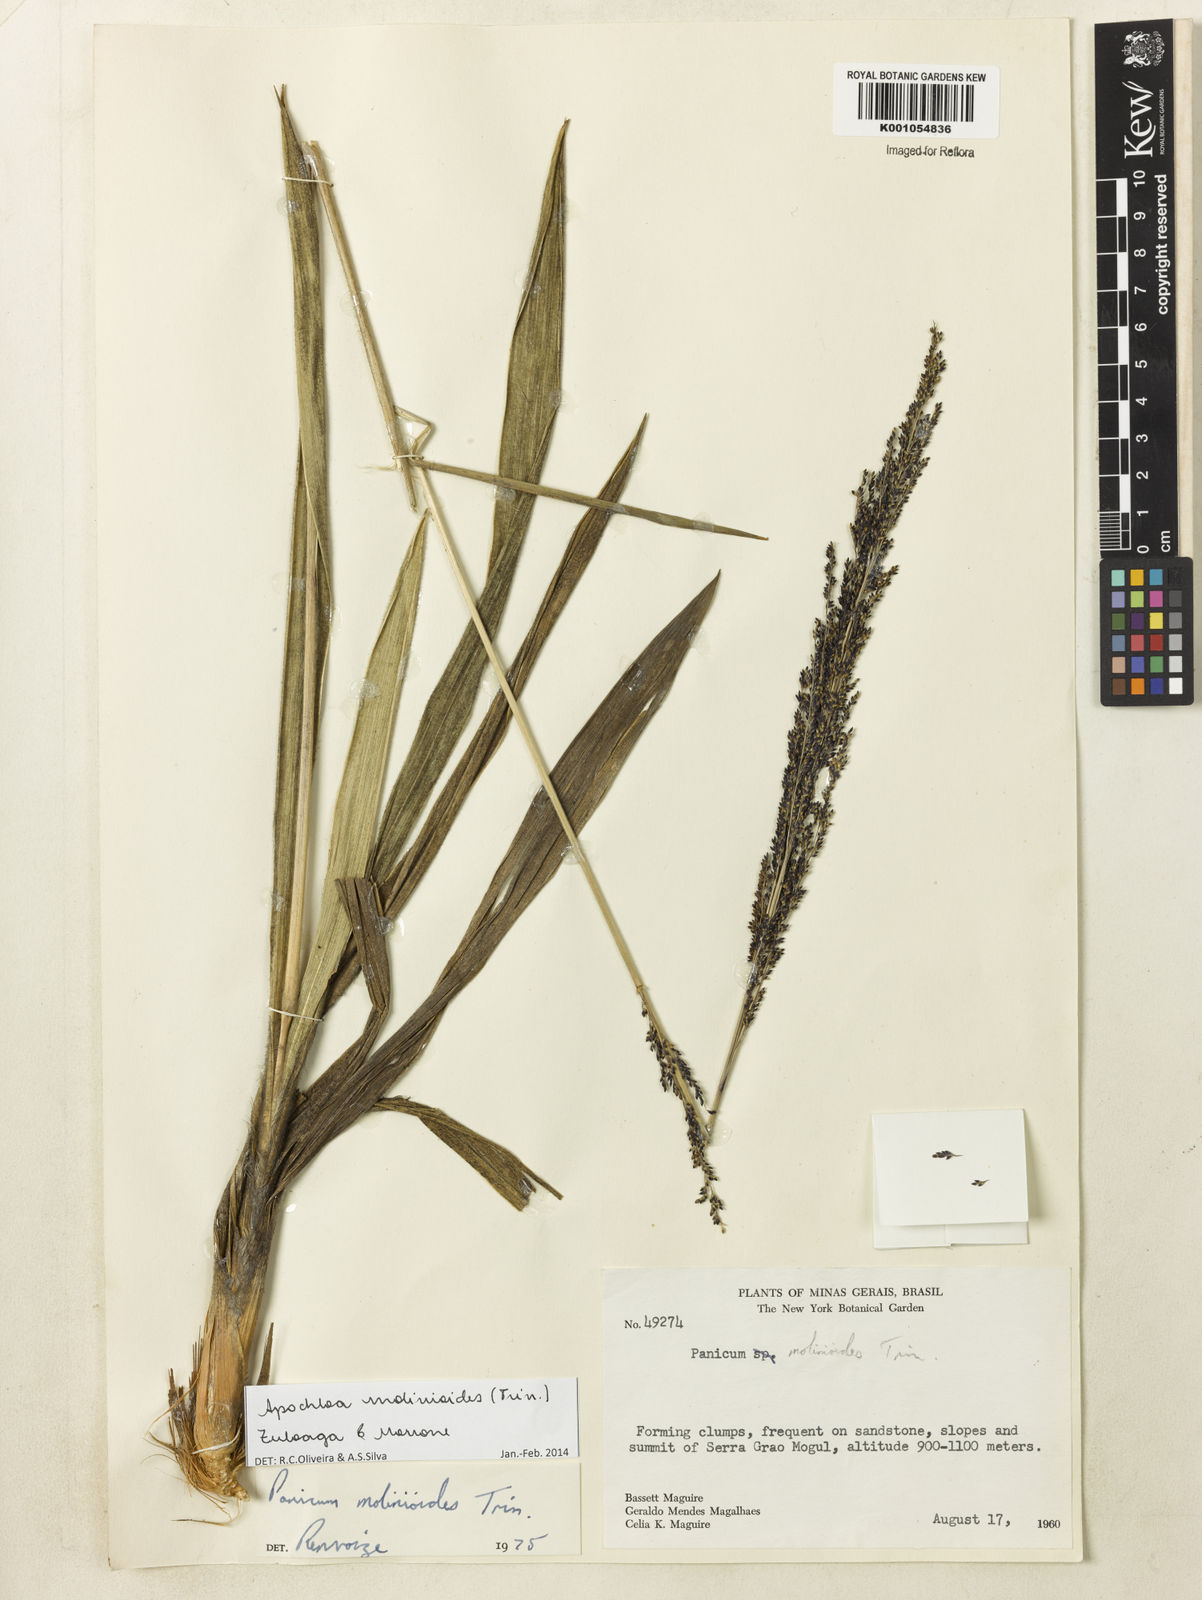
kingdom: Plantae
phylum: Tracheophyta
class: Liliopsida
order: Poales
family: Poaceae
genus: Apochloa
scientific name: Apochloa molinioides
